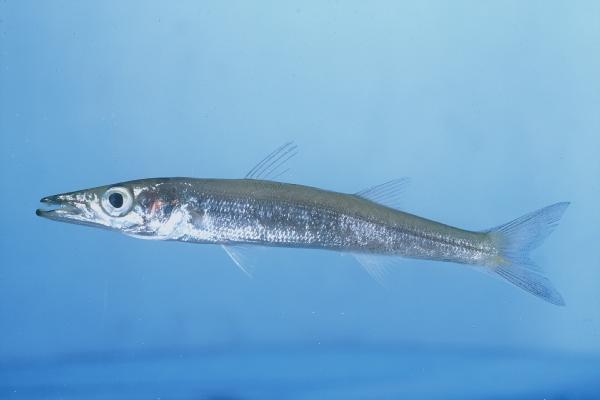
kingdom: Animalia
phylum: Chordata
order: Perciformes
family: Sphyraenidae
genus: Sphyraena
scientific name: Sphyraena chrysotaenia
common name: Yellowstripe barracuda
